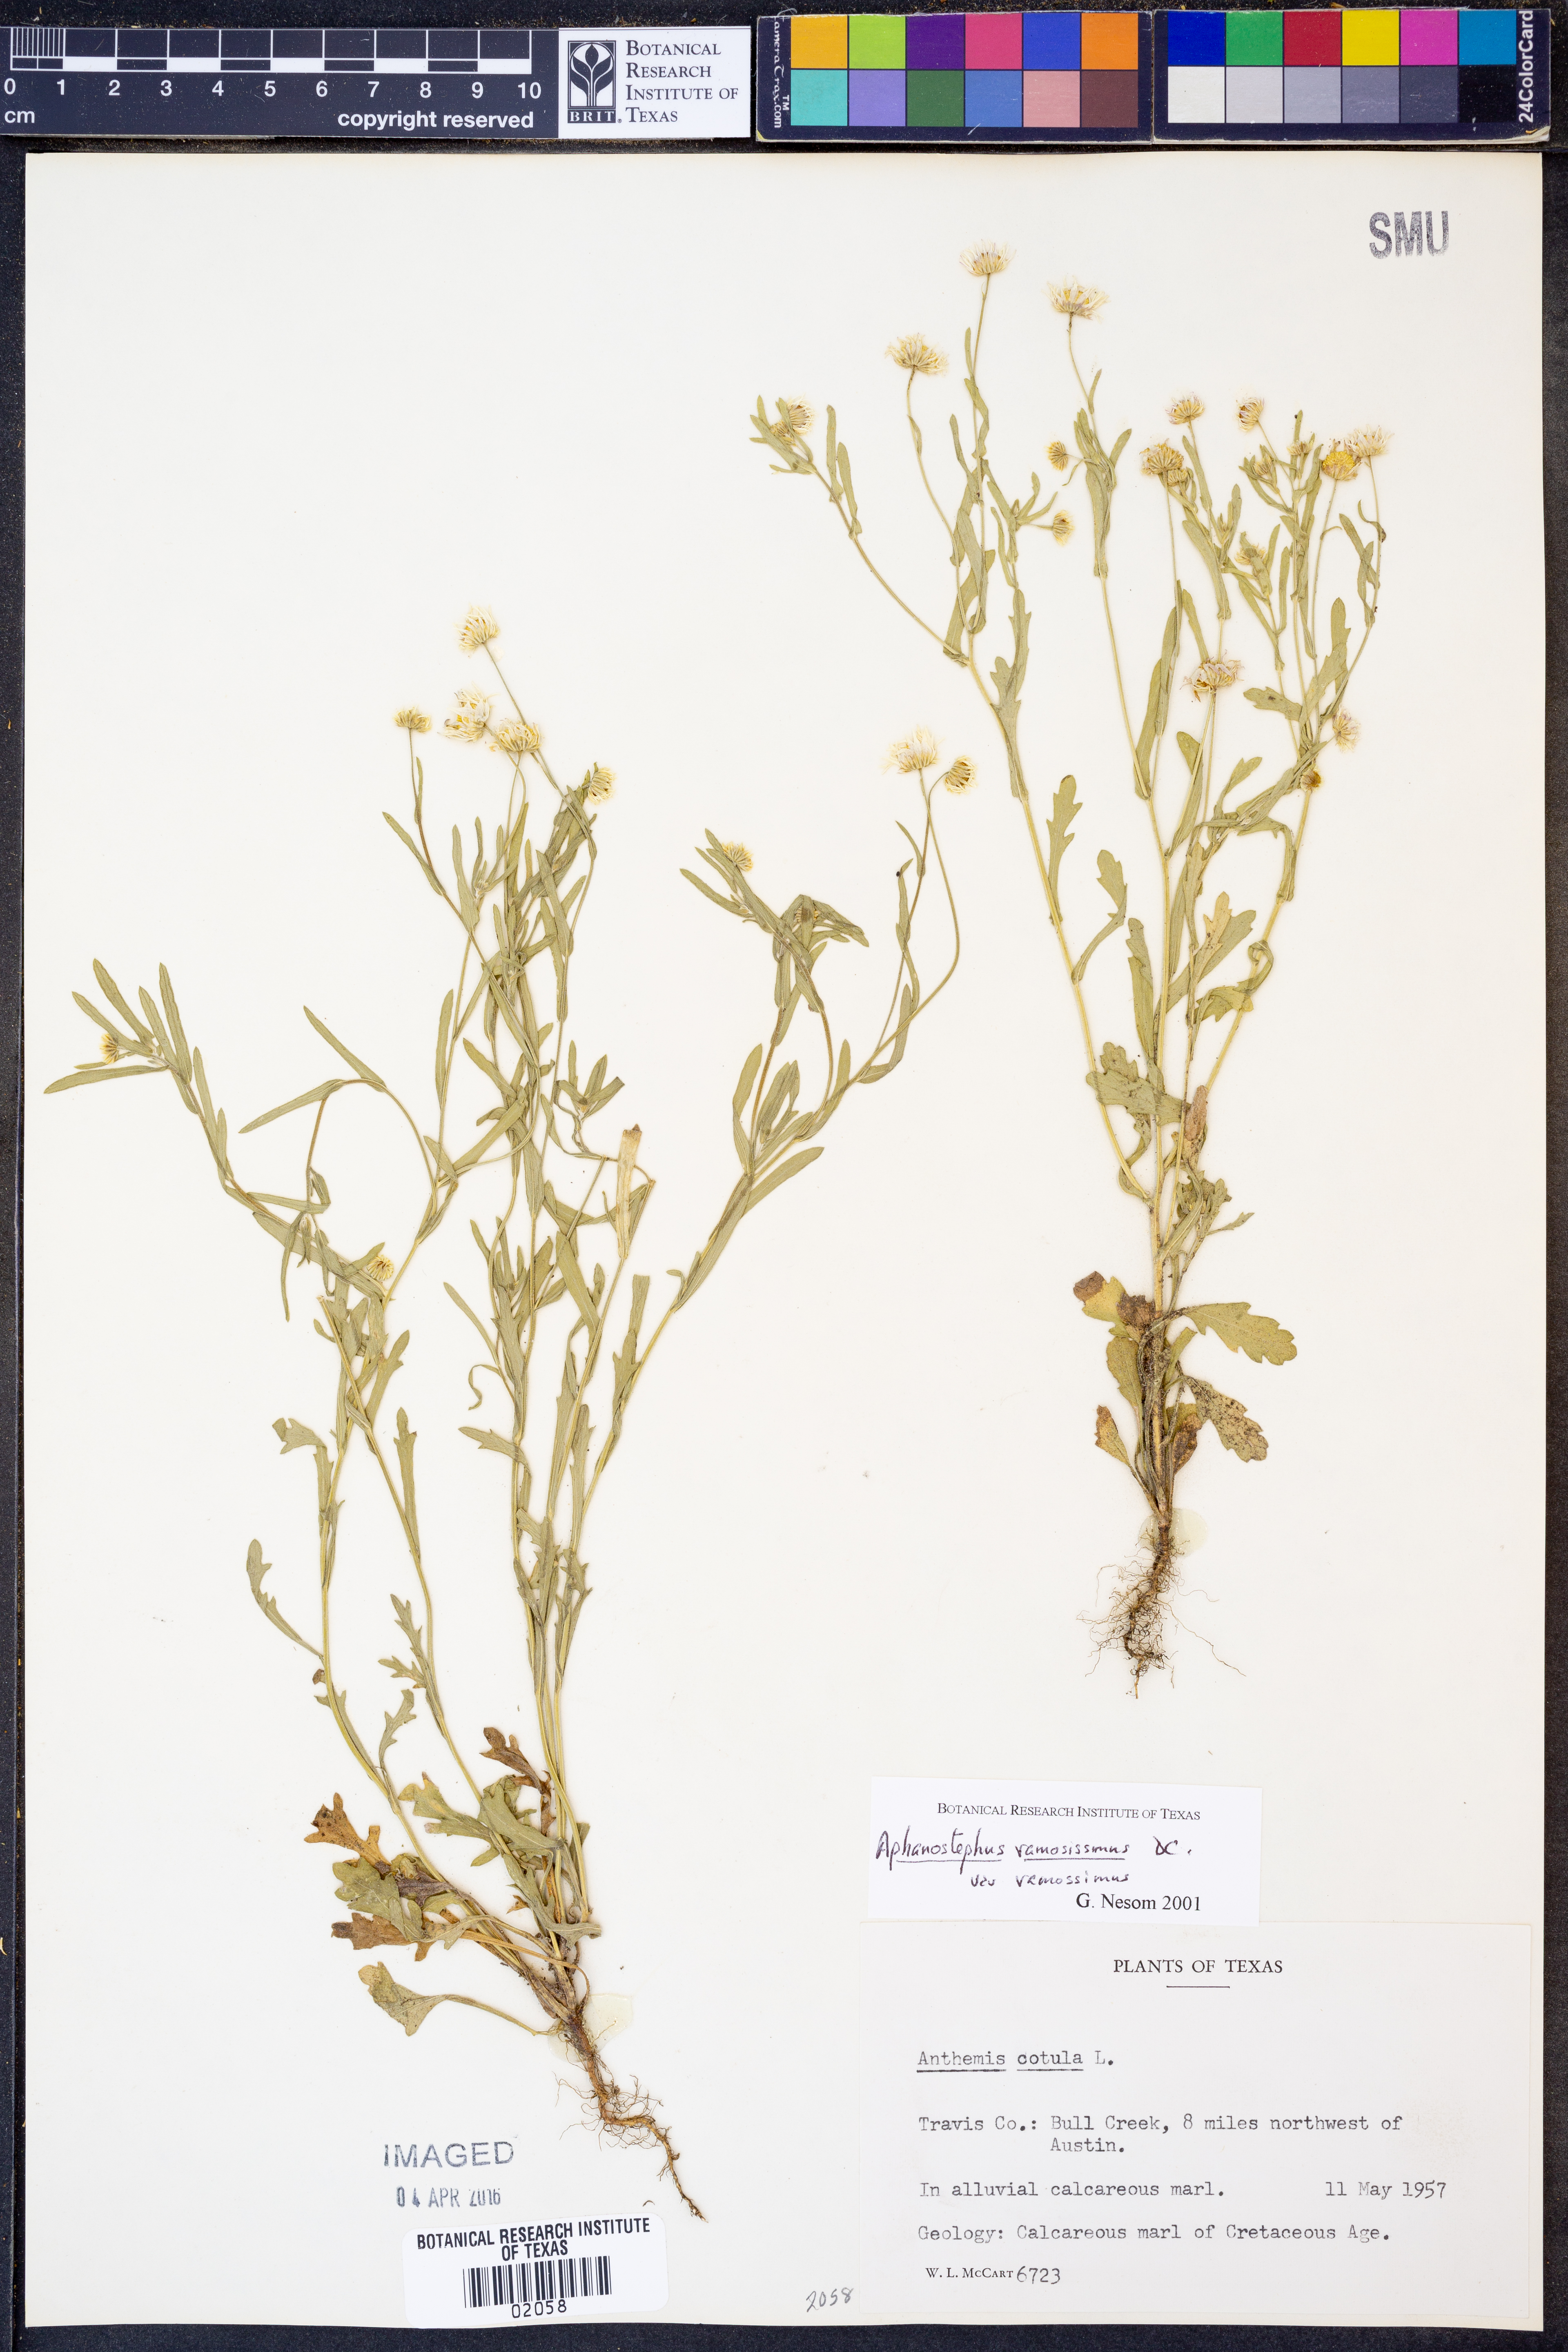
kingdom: Plantae
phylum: Tracheophyta
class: Magnoliopsida
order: Asterales
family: Asteraceae
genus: Aphanostephus
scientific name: Aphanostephus ramosissimus
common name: Plains lazy daisy
